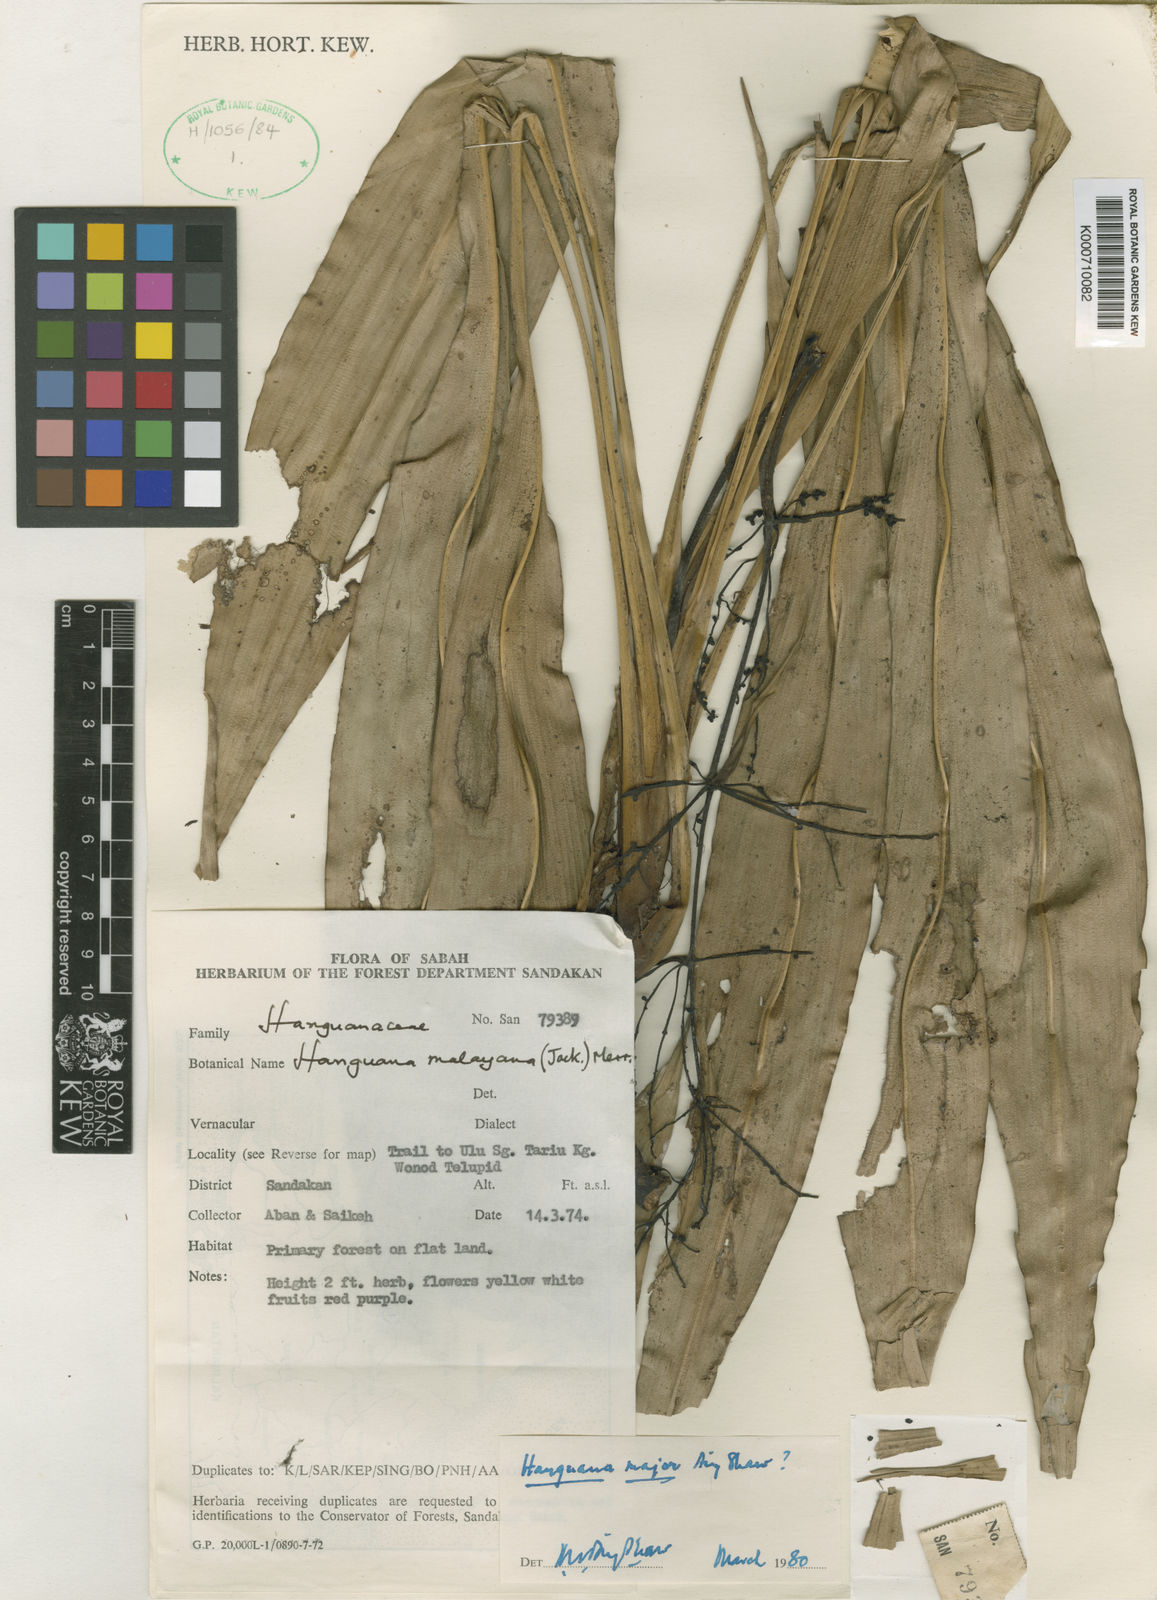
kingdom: Plantae
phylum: Tracheophyta
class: Liliopsida
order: Commelinales
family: Hanguanaceae
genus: Hanguana
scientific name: Hanguana major
